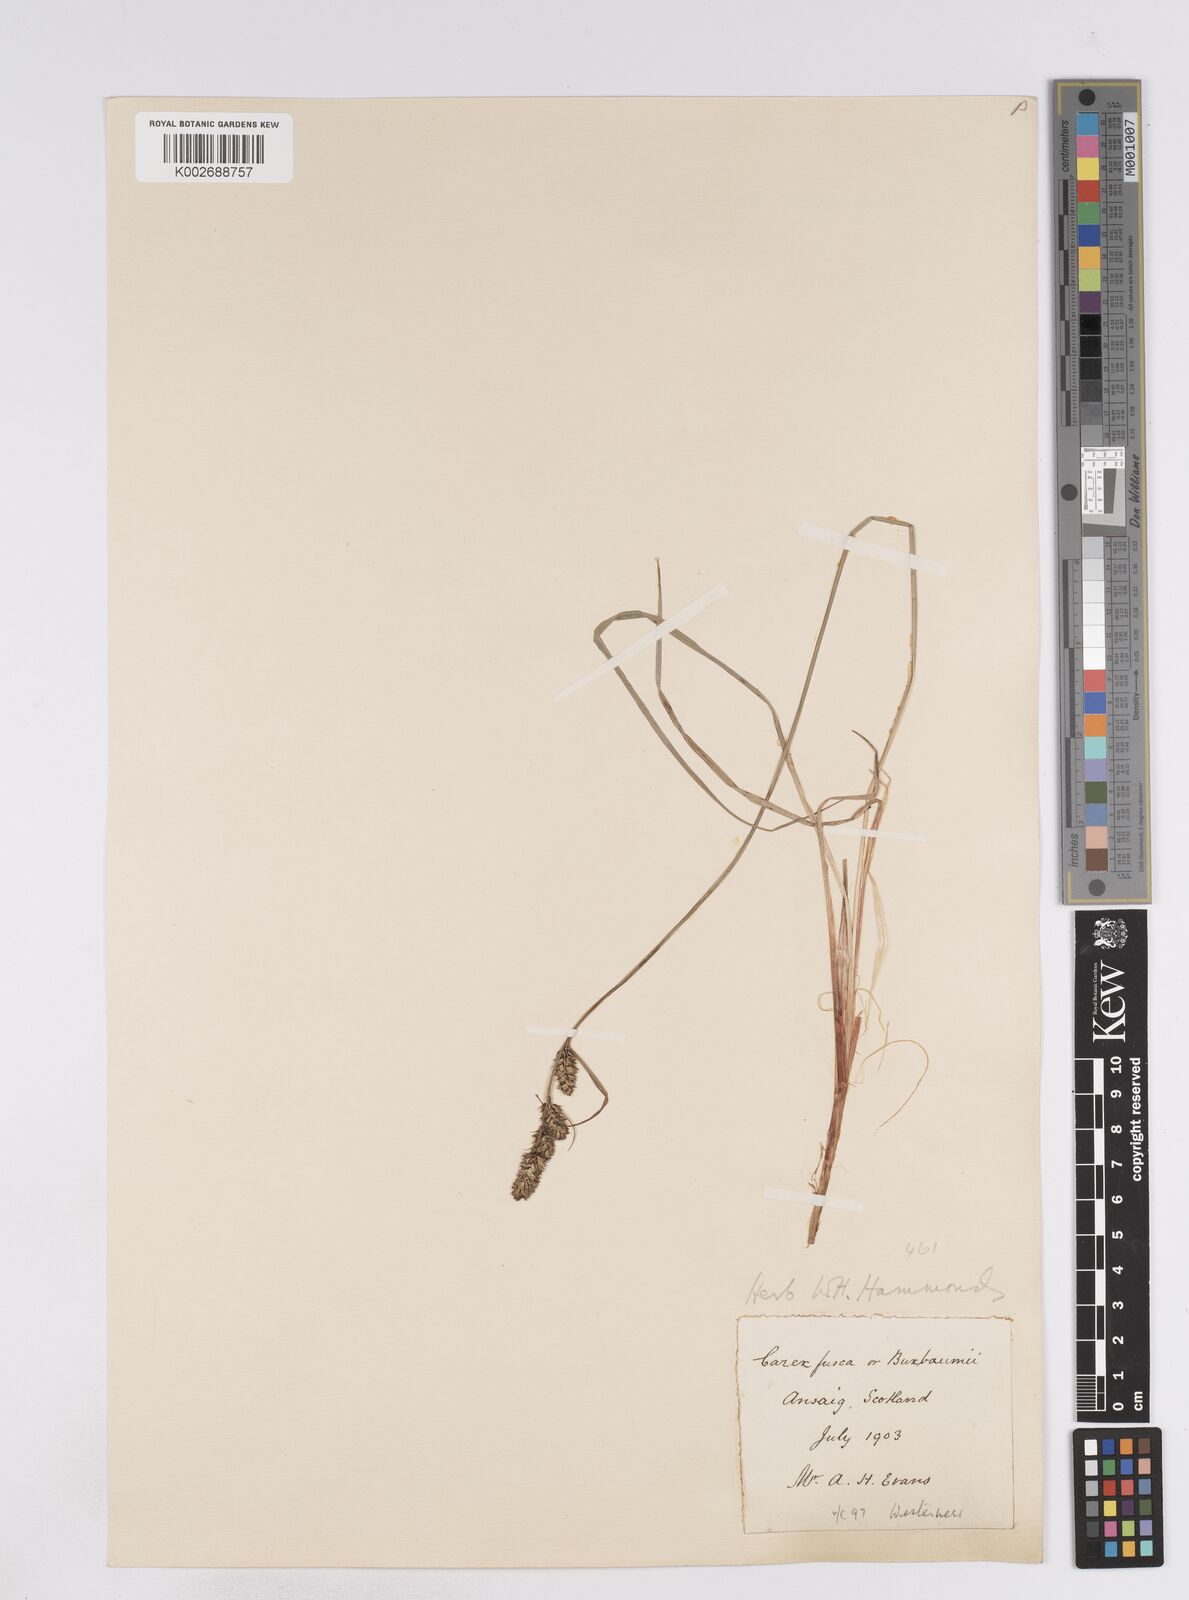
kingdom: Plantae
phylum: Tracheophyta
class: Liliopsida
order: Poales
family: Cyperaceae
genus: Carex
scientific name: Carex buxbaumii
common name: Club sedge
